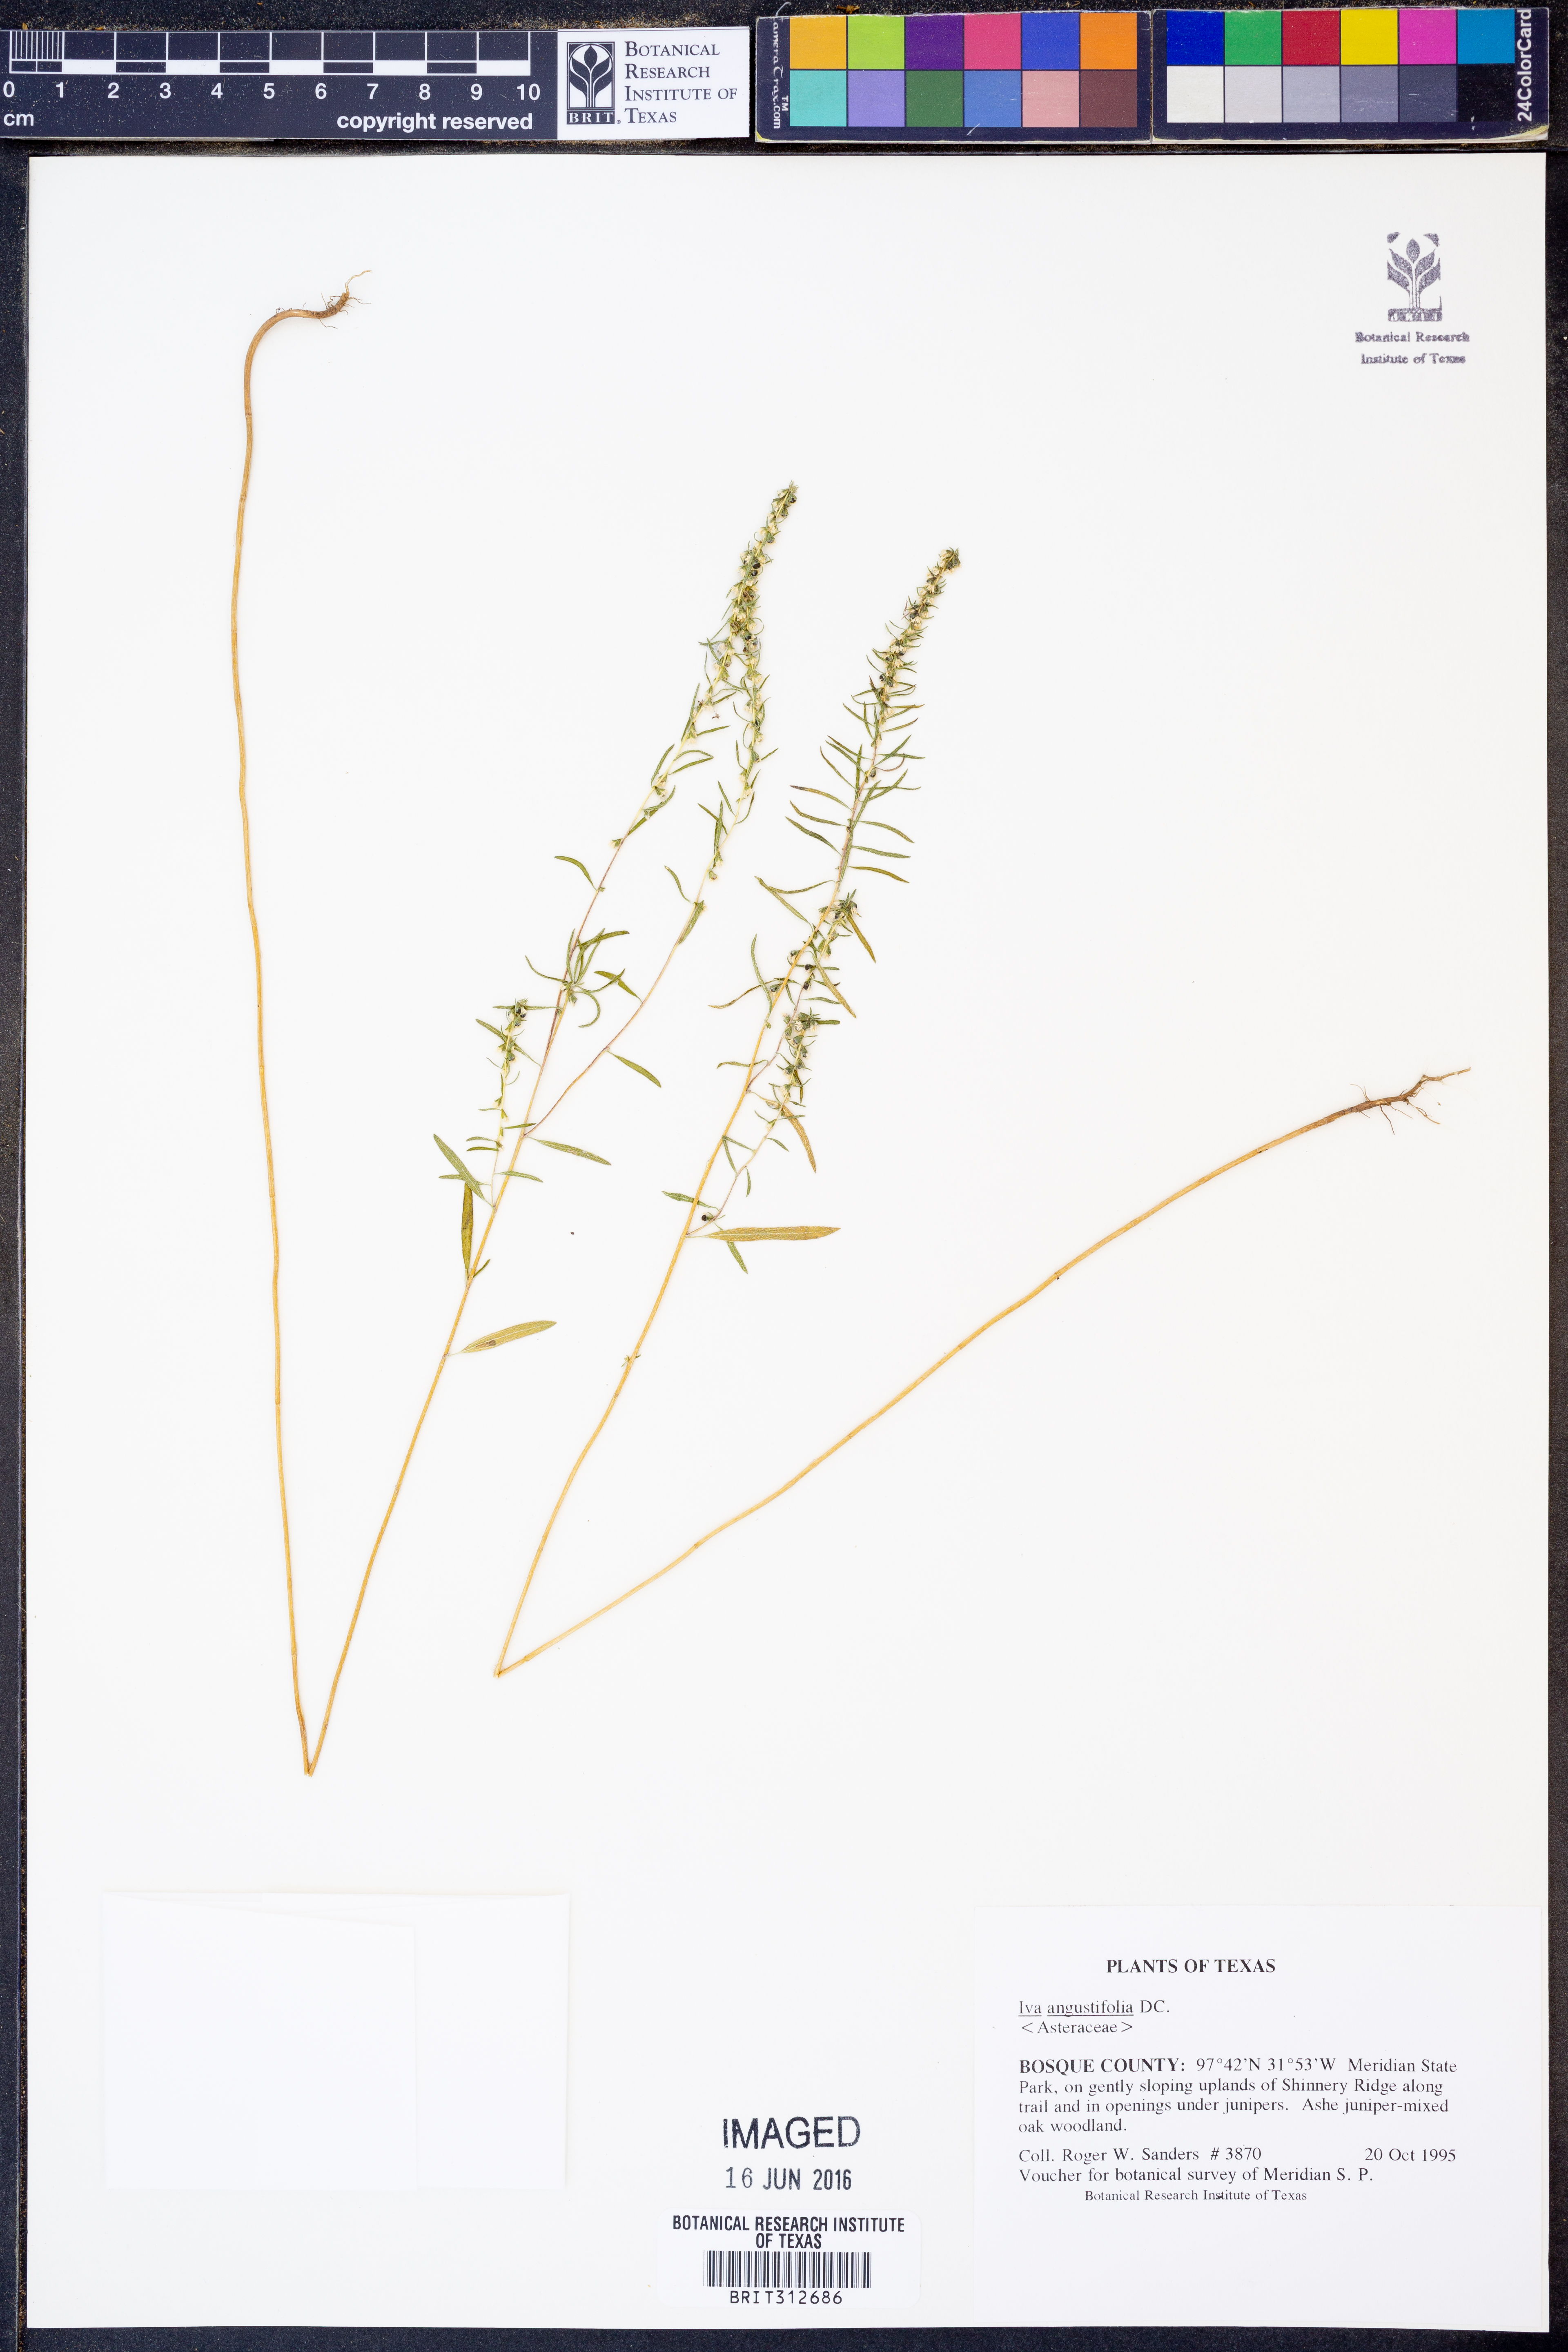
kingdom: Plantae
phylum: Tracheophyta
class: Magnoliopsida
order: Asterales
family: Asteraceae
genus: Iva
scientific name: Iva asperifolia
